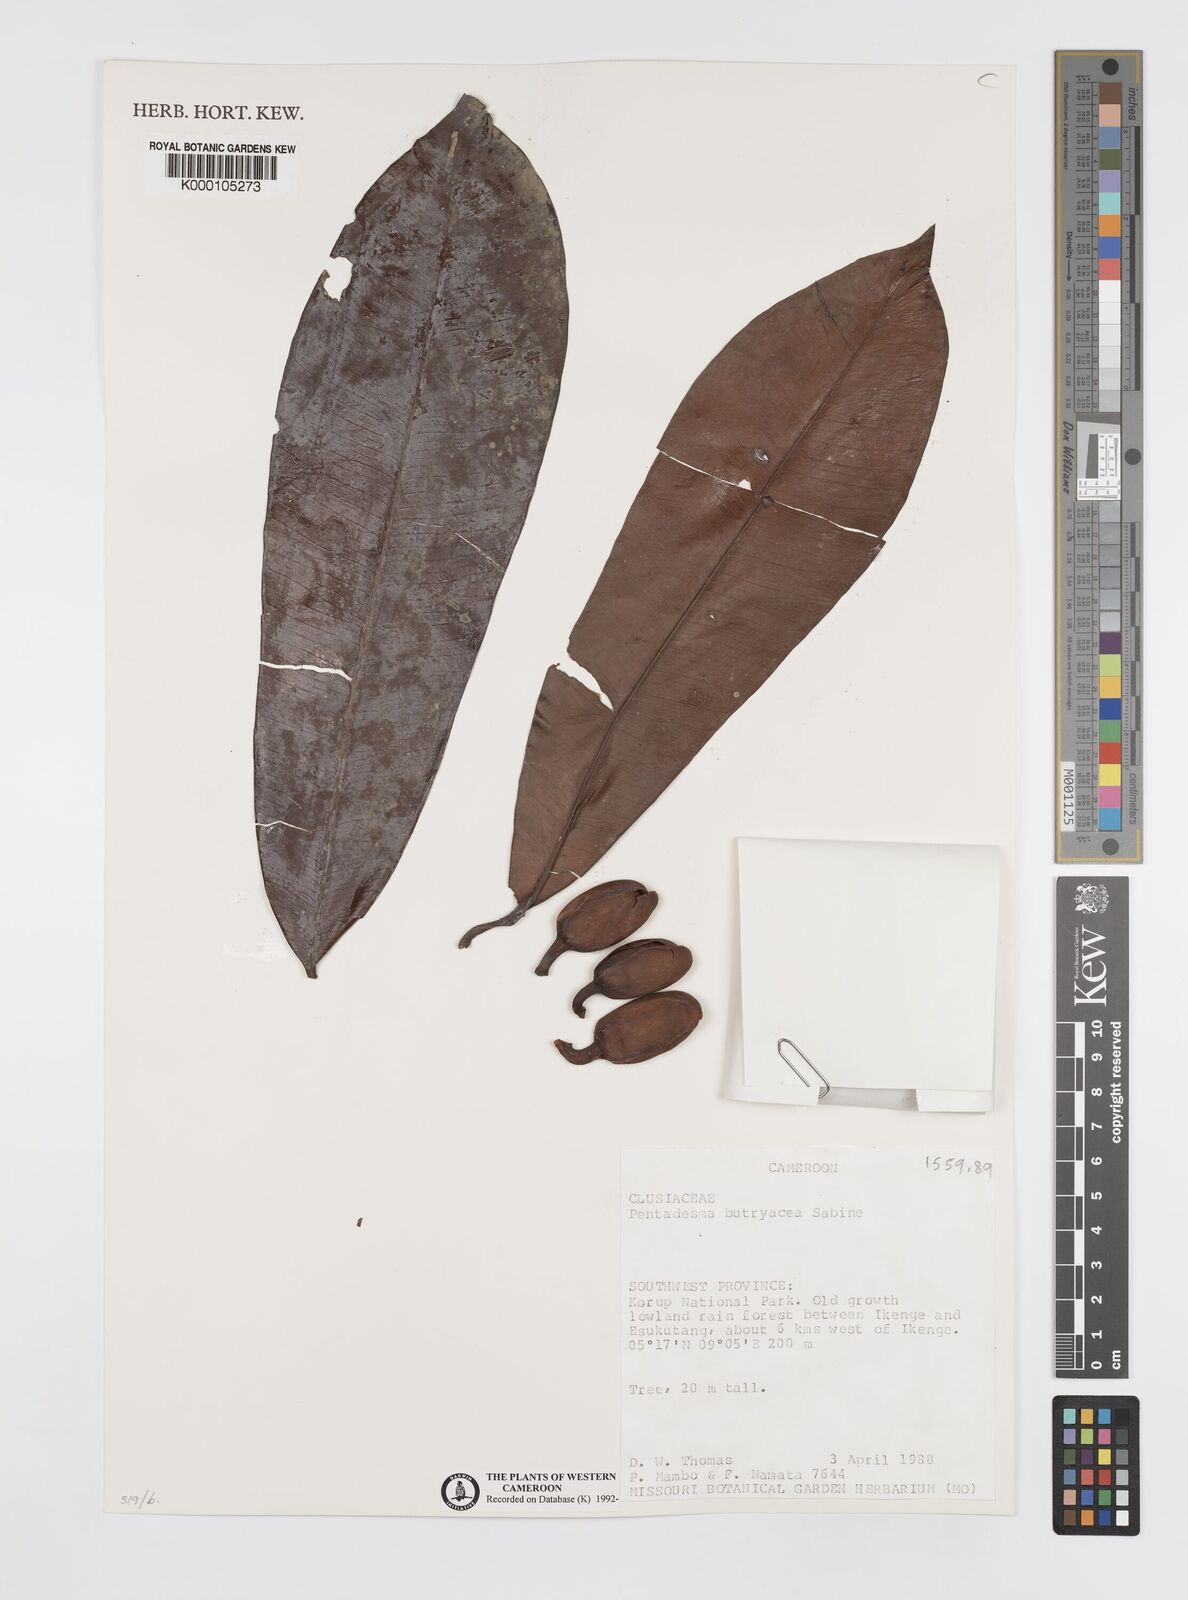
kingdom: Plantae
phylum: Tracheophyta
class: Magnoliopsida
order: Malpighiales
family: Clusiaceae
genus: Pentadesma
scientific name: Pentadesma butyracea
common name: Buttertree
